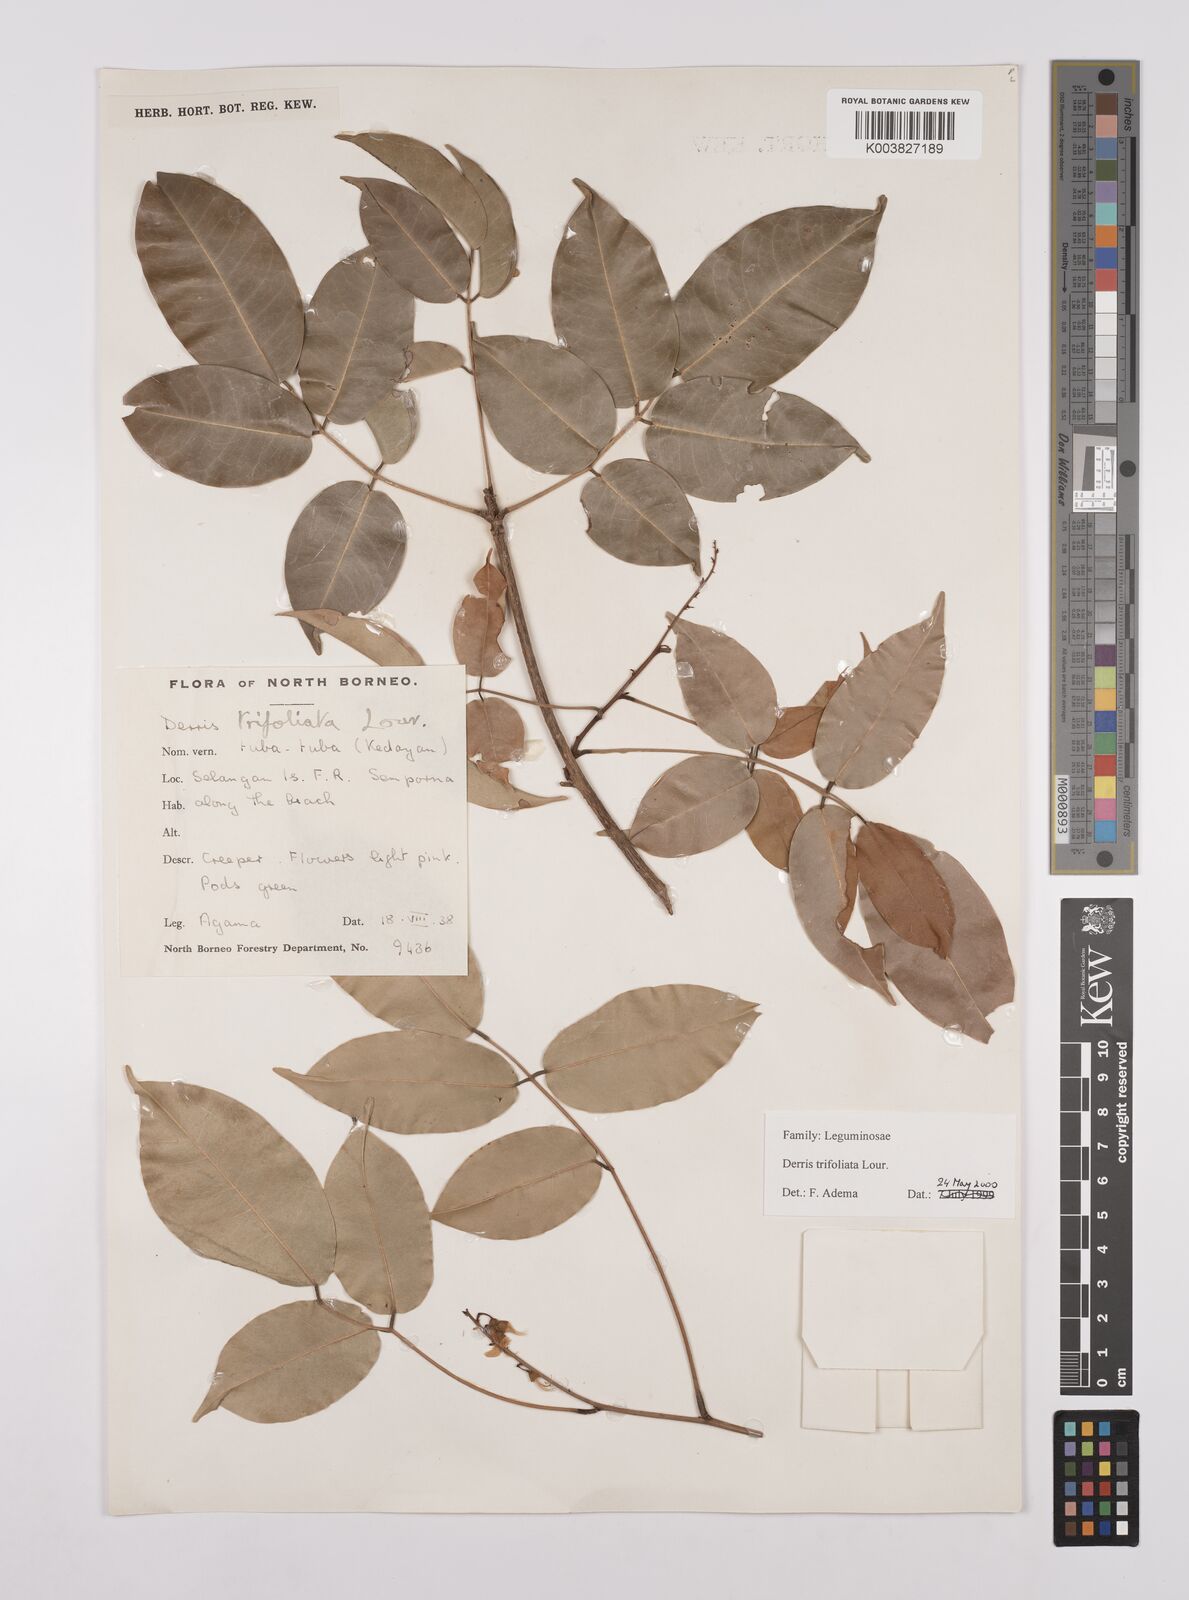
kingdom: Plantae
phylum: Tracheophyta
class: Magnoliopsida
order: Fabales
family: Fabaceae
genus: Derris
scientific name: Derris trifoliata
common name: Three-leaf derris
